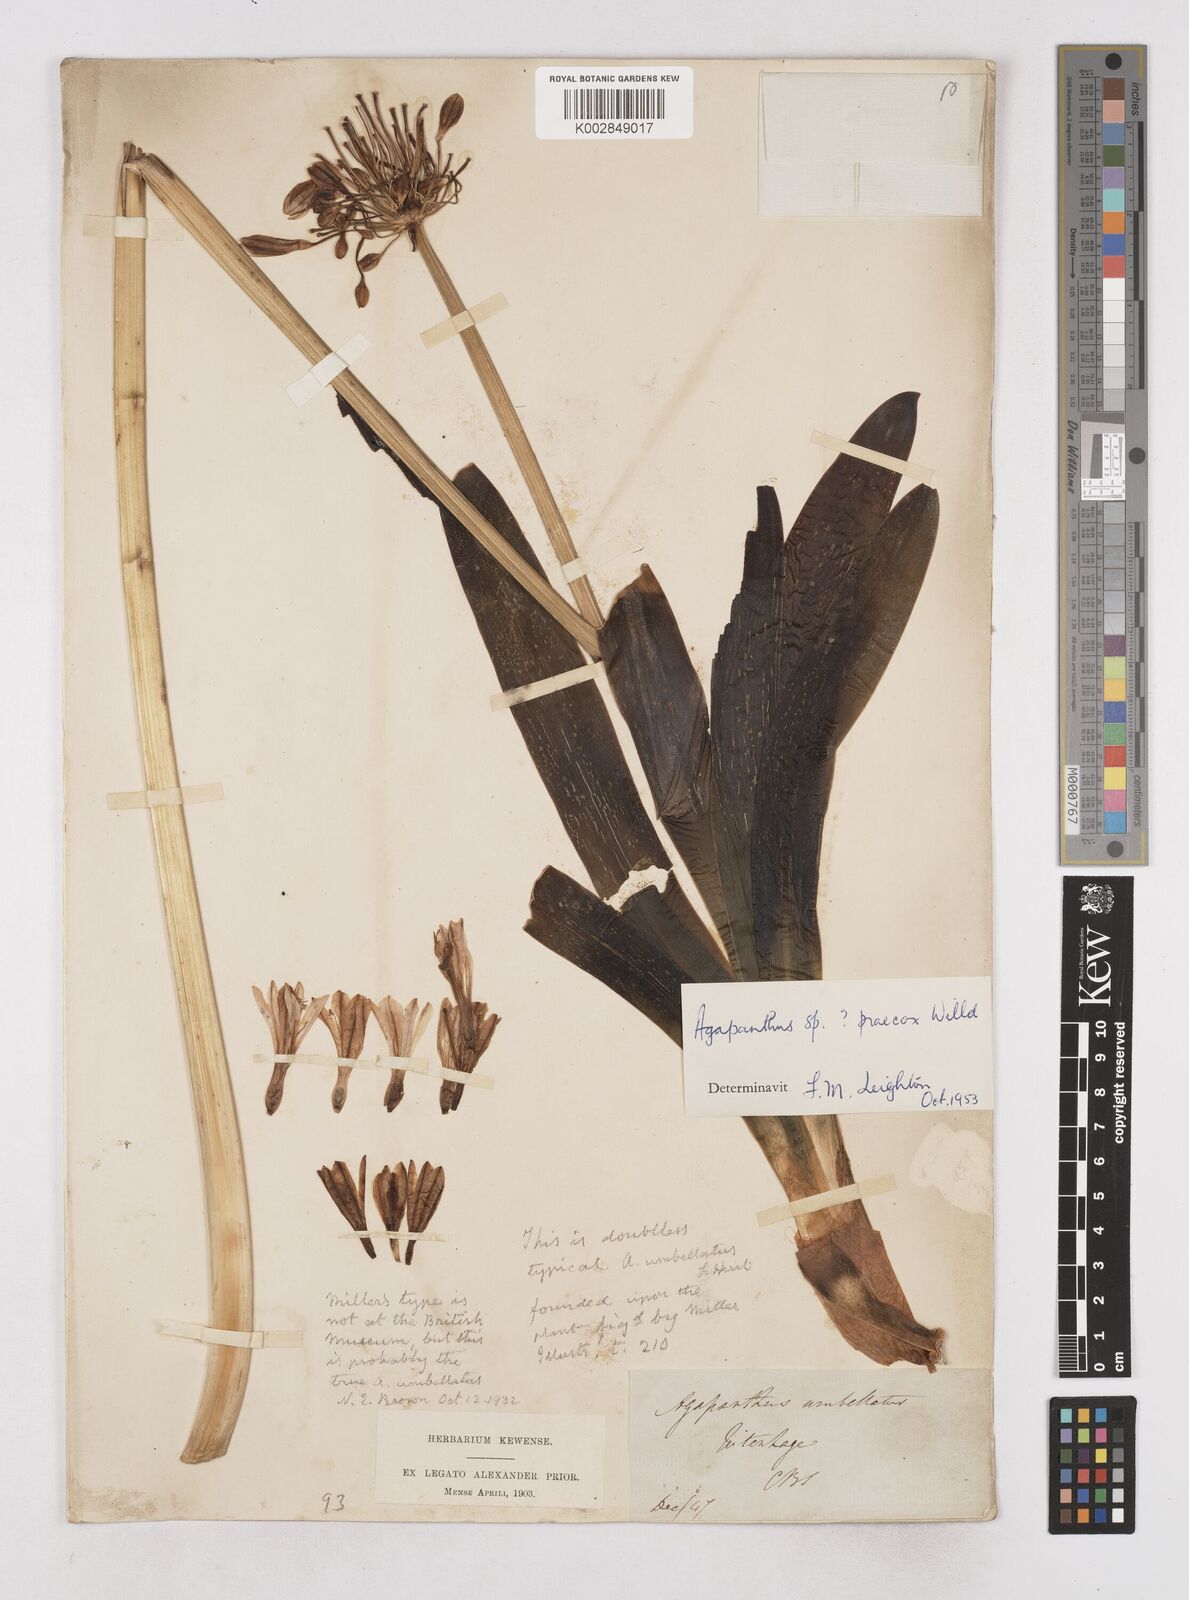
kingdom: Plantae
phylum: Tracheophyta
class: Liliopsida
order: Asparagales
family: Amaryllidaceae
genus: Agapanthus
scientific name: Agapanthus praecox
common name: African-lily
